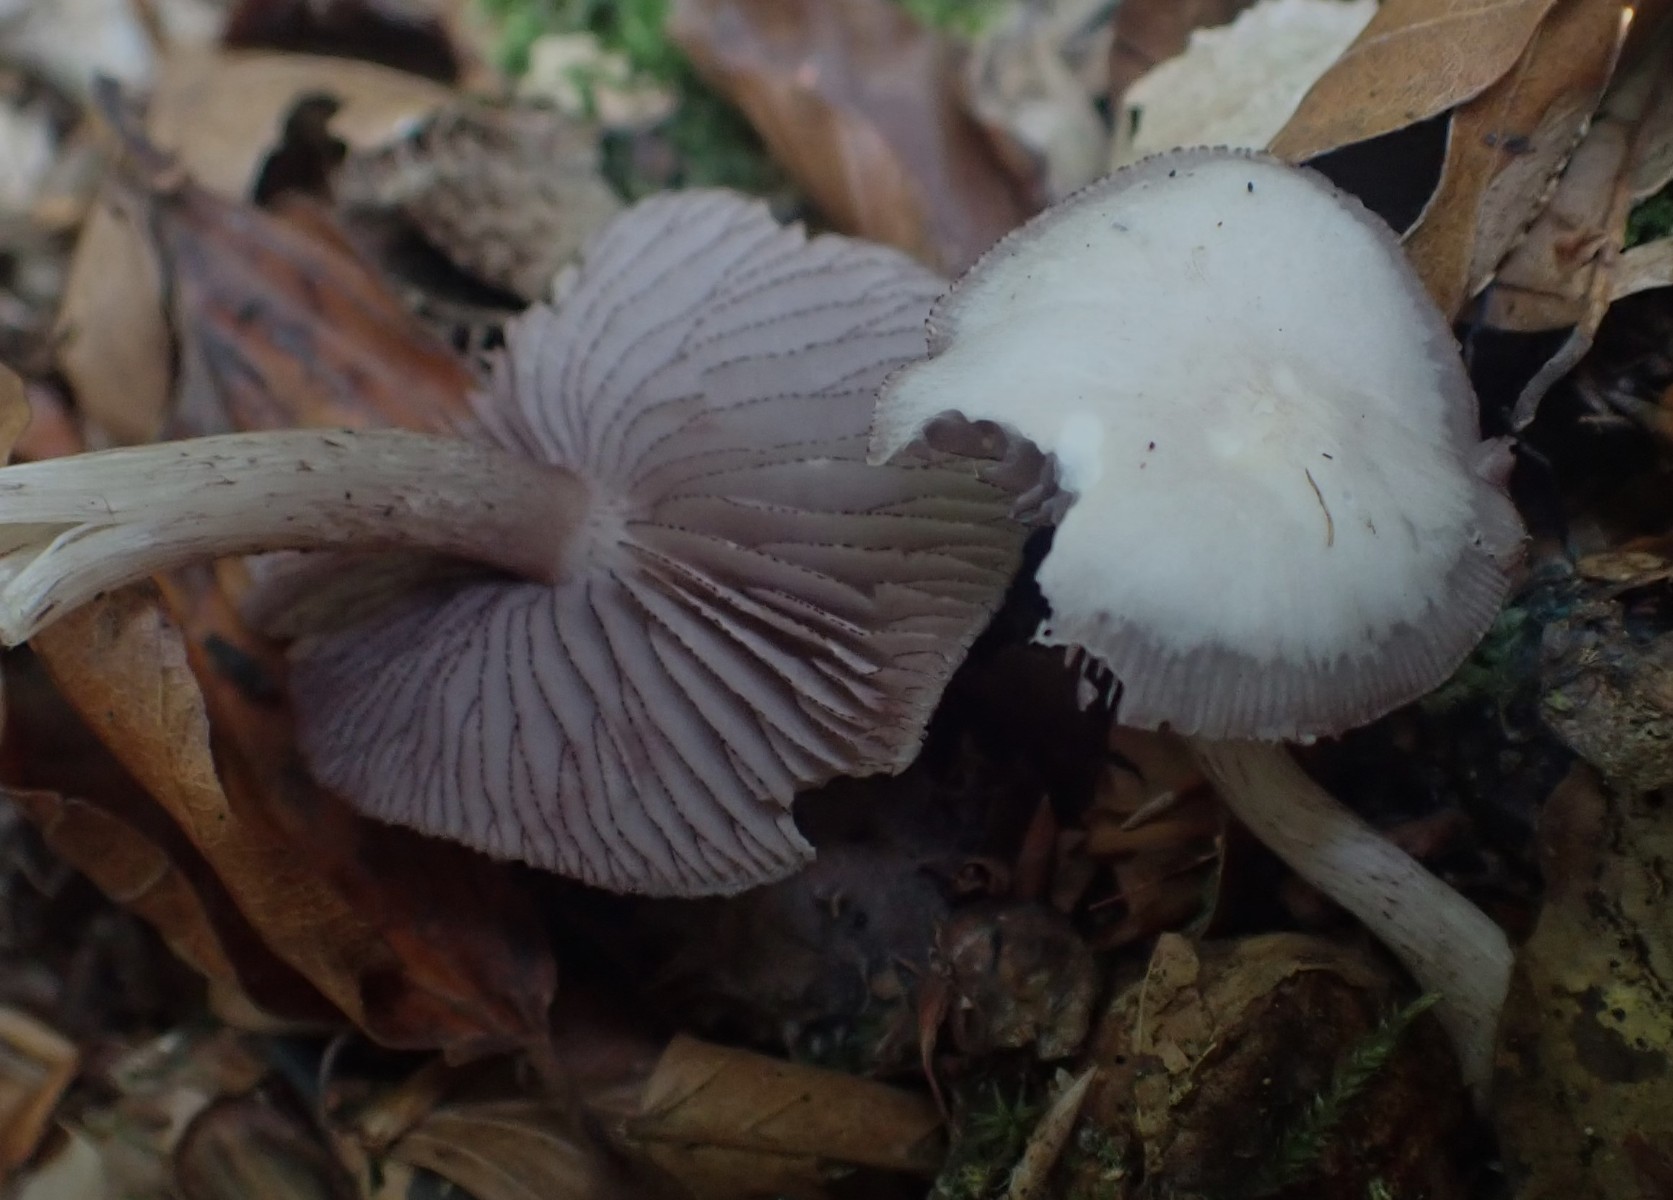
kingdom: Fungi
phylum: Basidiomycota
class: Agaricomycetes
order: Agaricales
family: Mycenaceae
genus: Mycena
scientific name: Mycena pelianthina
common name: mørkbladet huesvamp
